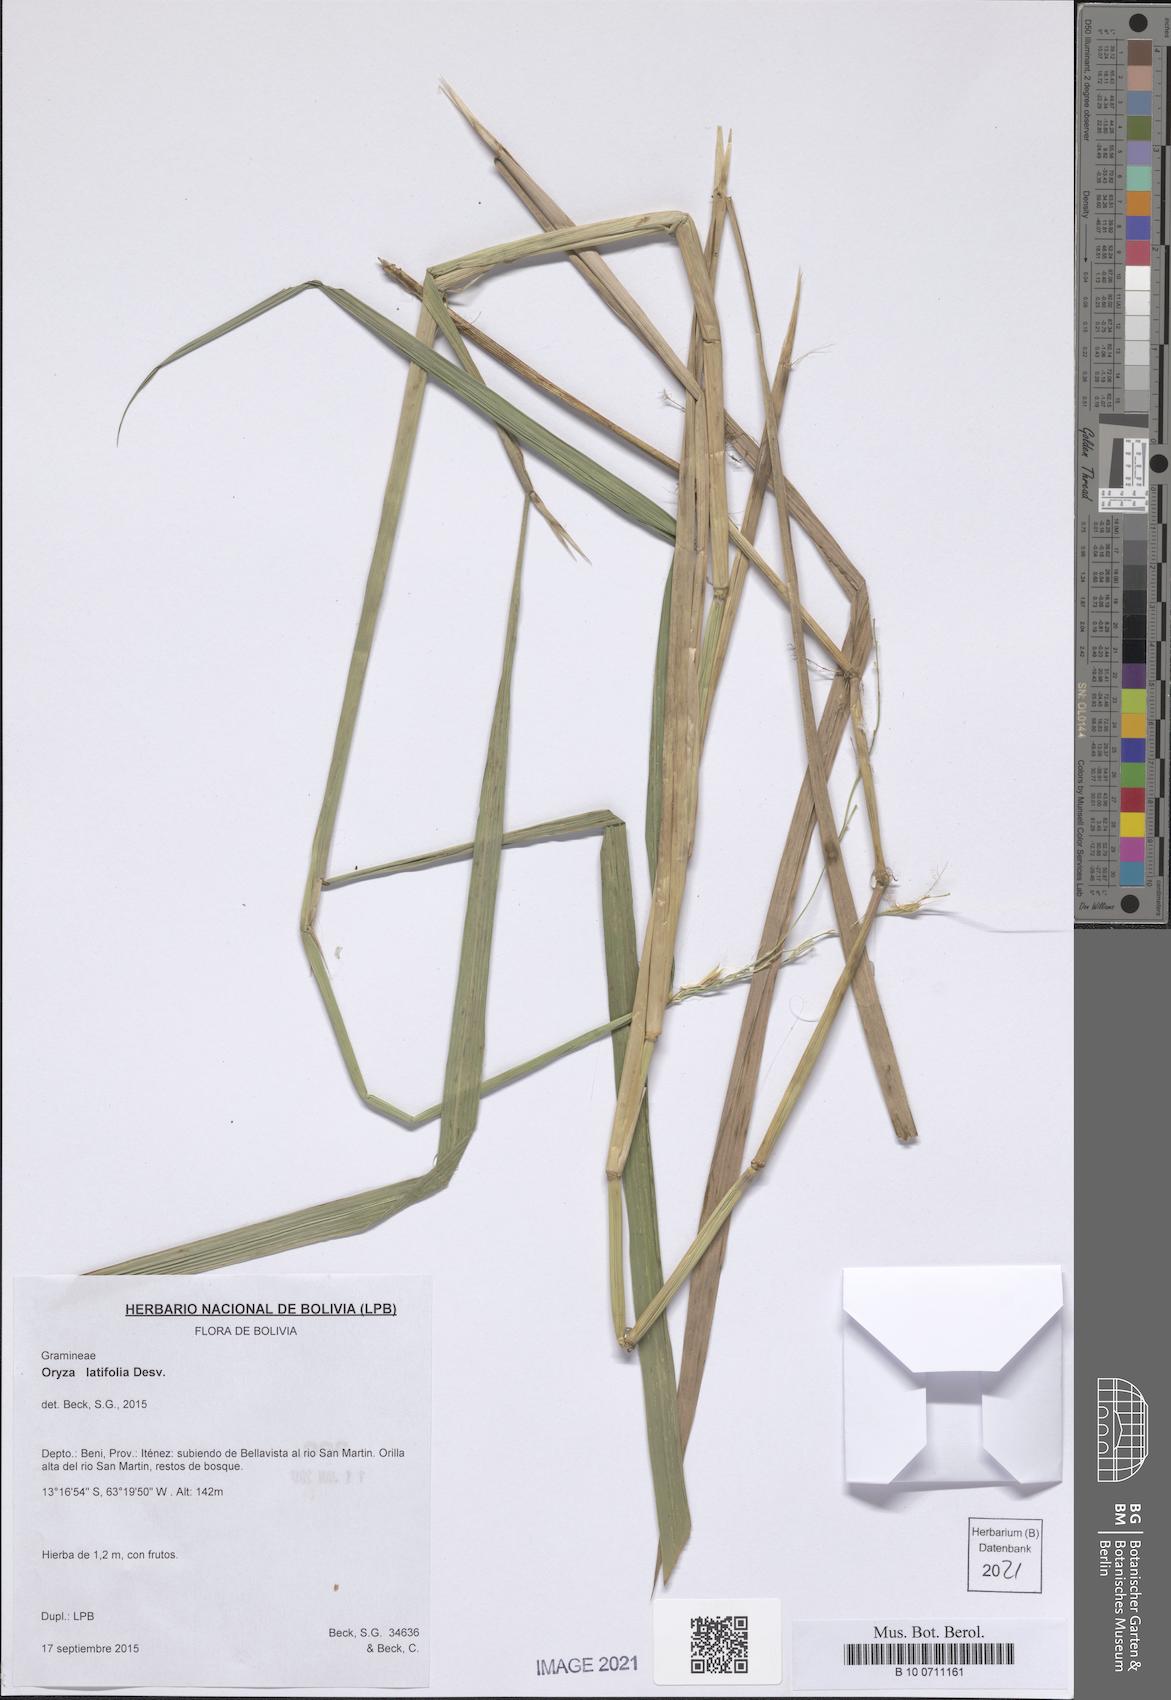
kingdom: Plantae
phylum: Tracheophyta
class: Liliopsida
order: Poales
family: Poaceae
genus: Oryza
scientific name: Oryza latifolia
